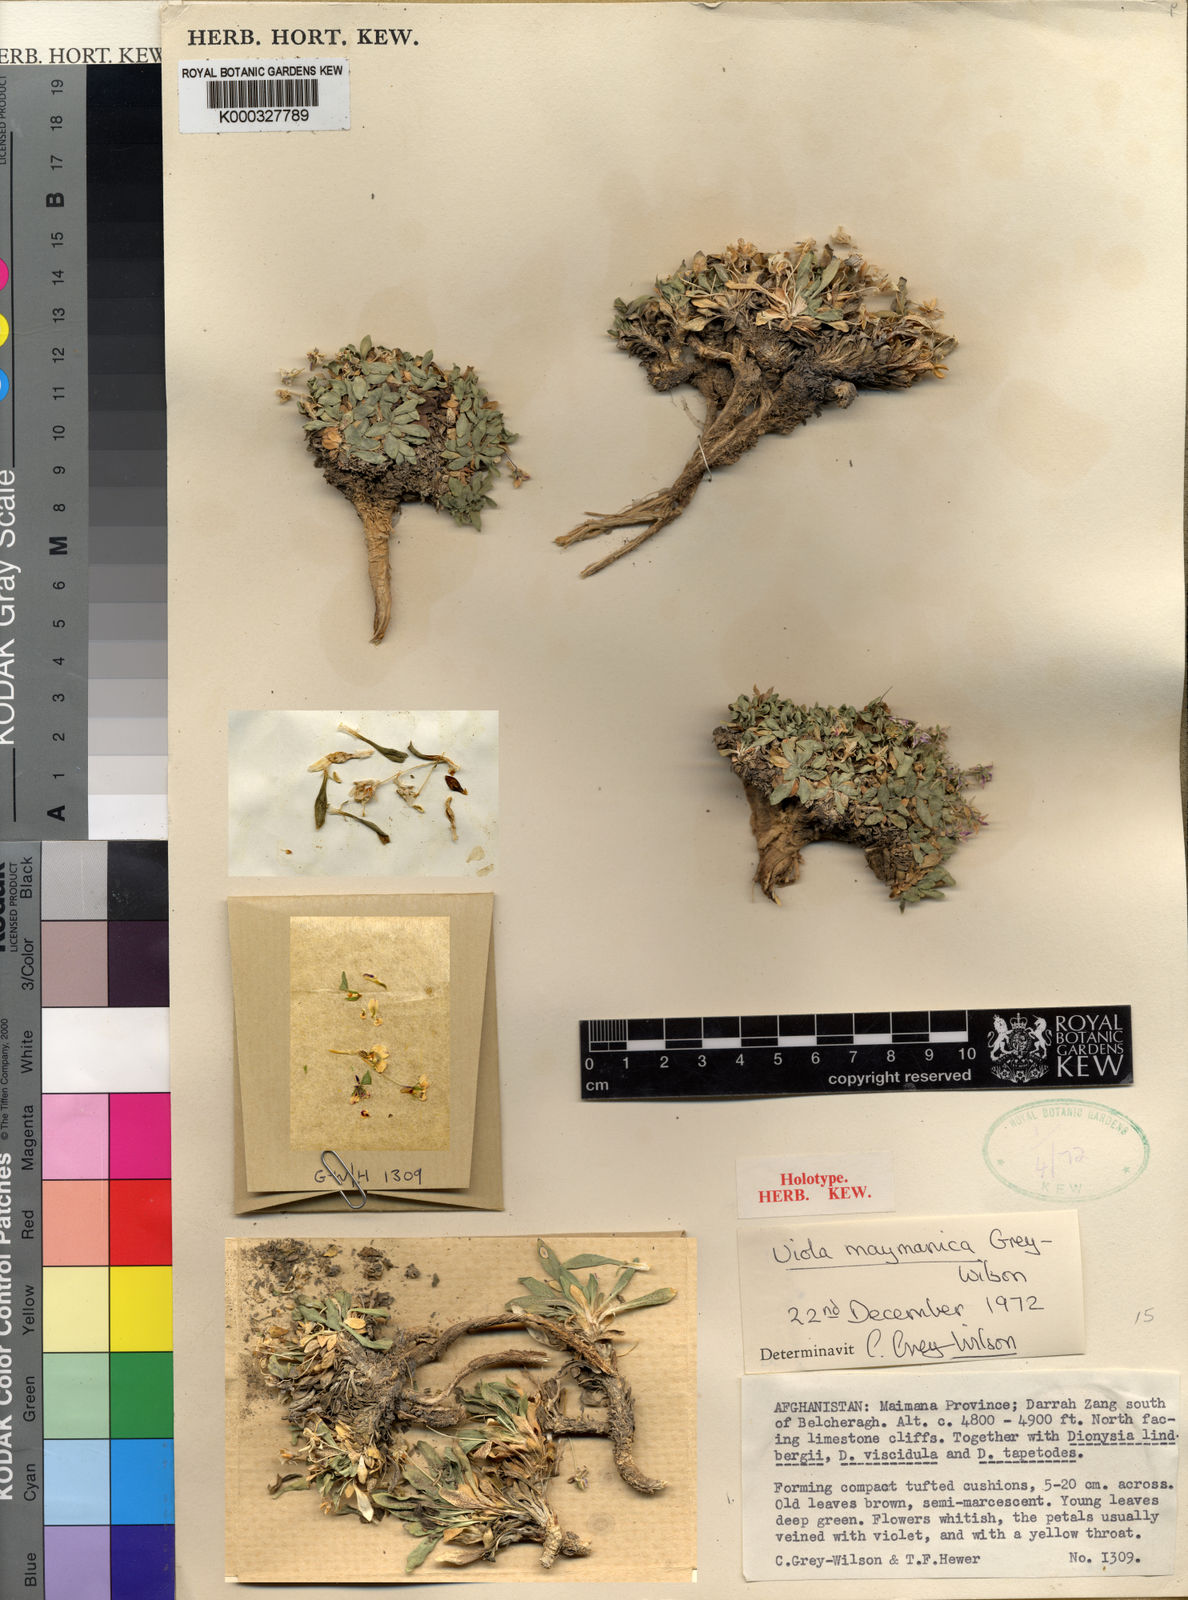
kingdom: Plantae
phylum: Tracheophyta
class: Magnoliopsida
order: Malpighiales
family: Violaceae
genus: Viola
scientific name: Viola maymanica
